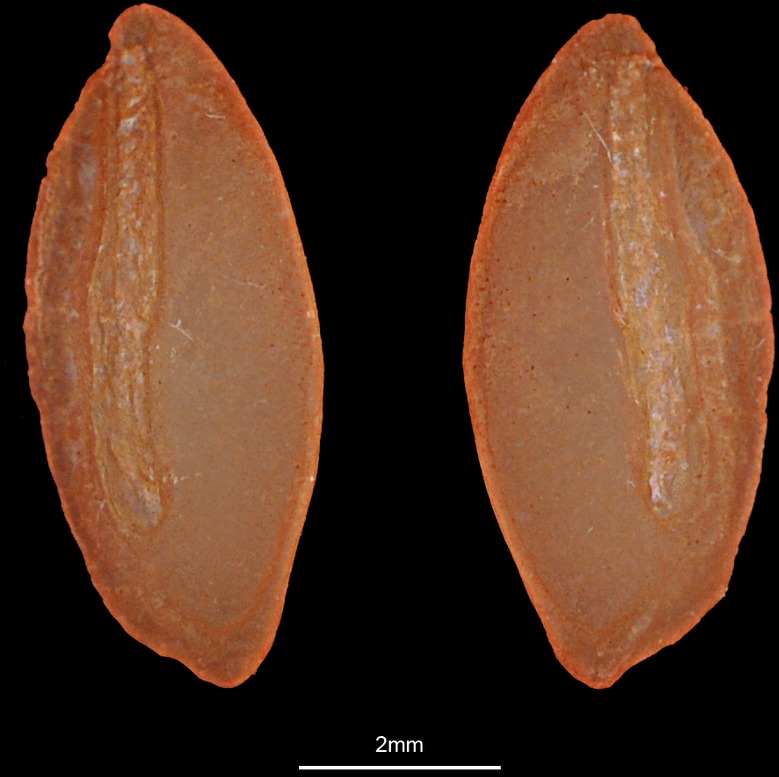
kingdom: Animalia
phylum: Chordata
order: Perciformes
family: Trachinidae
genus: Trachinus
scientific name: Trachinus draco
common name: Greater weever
